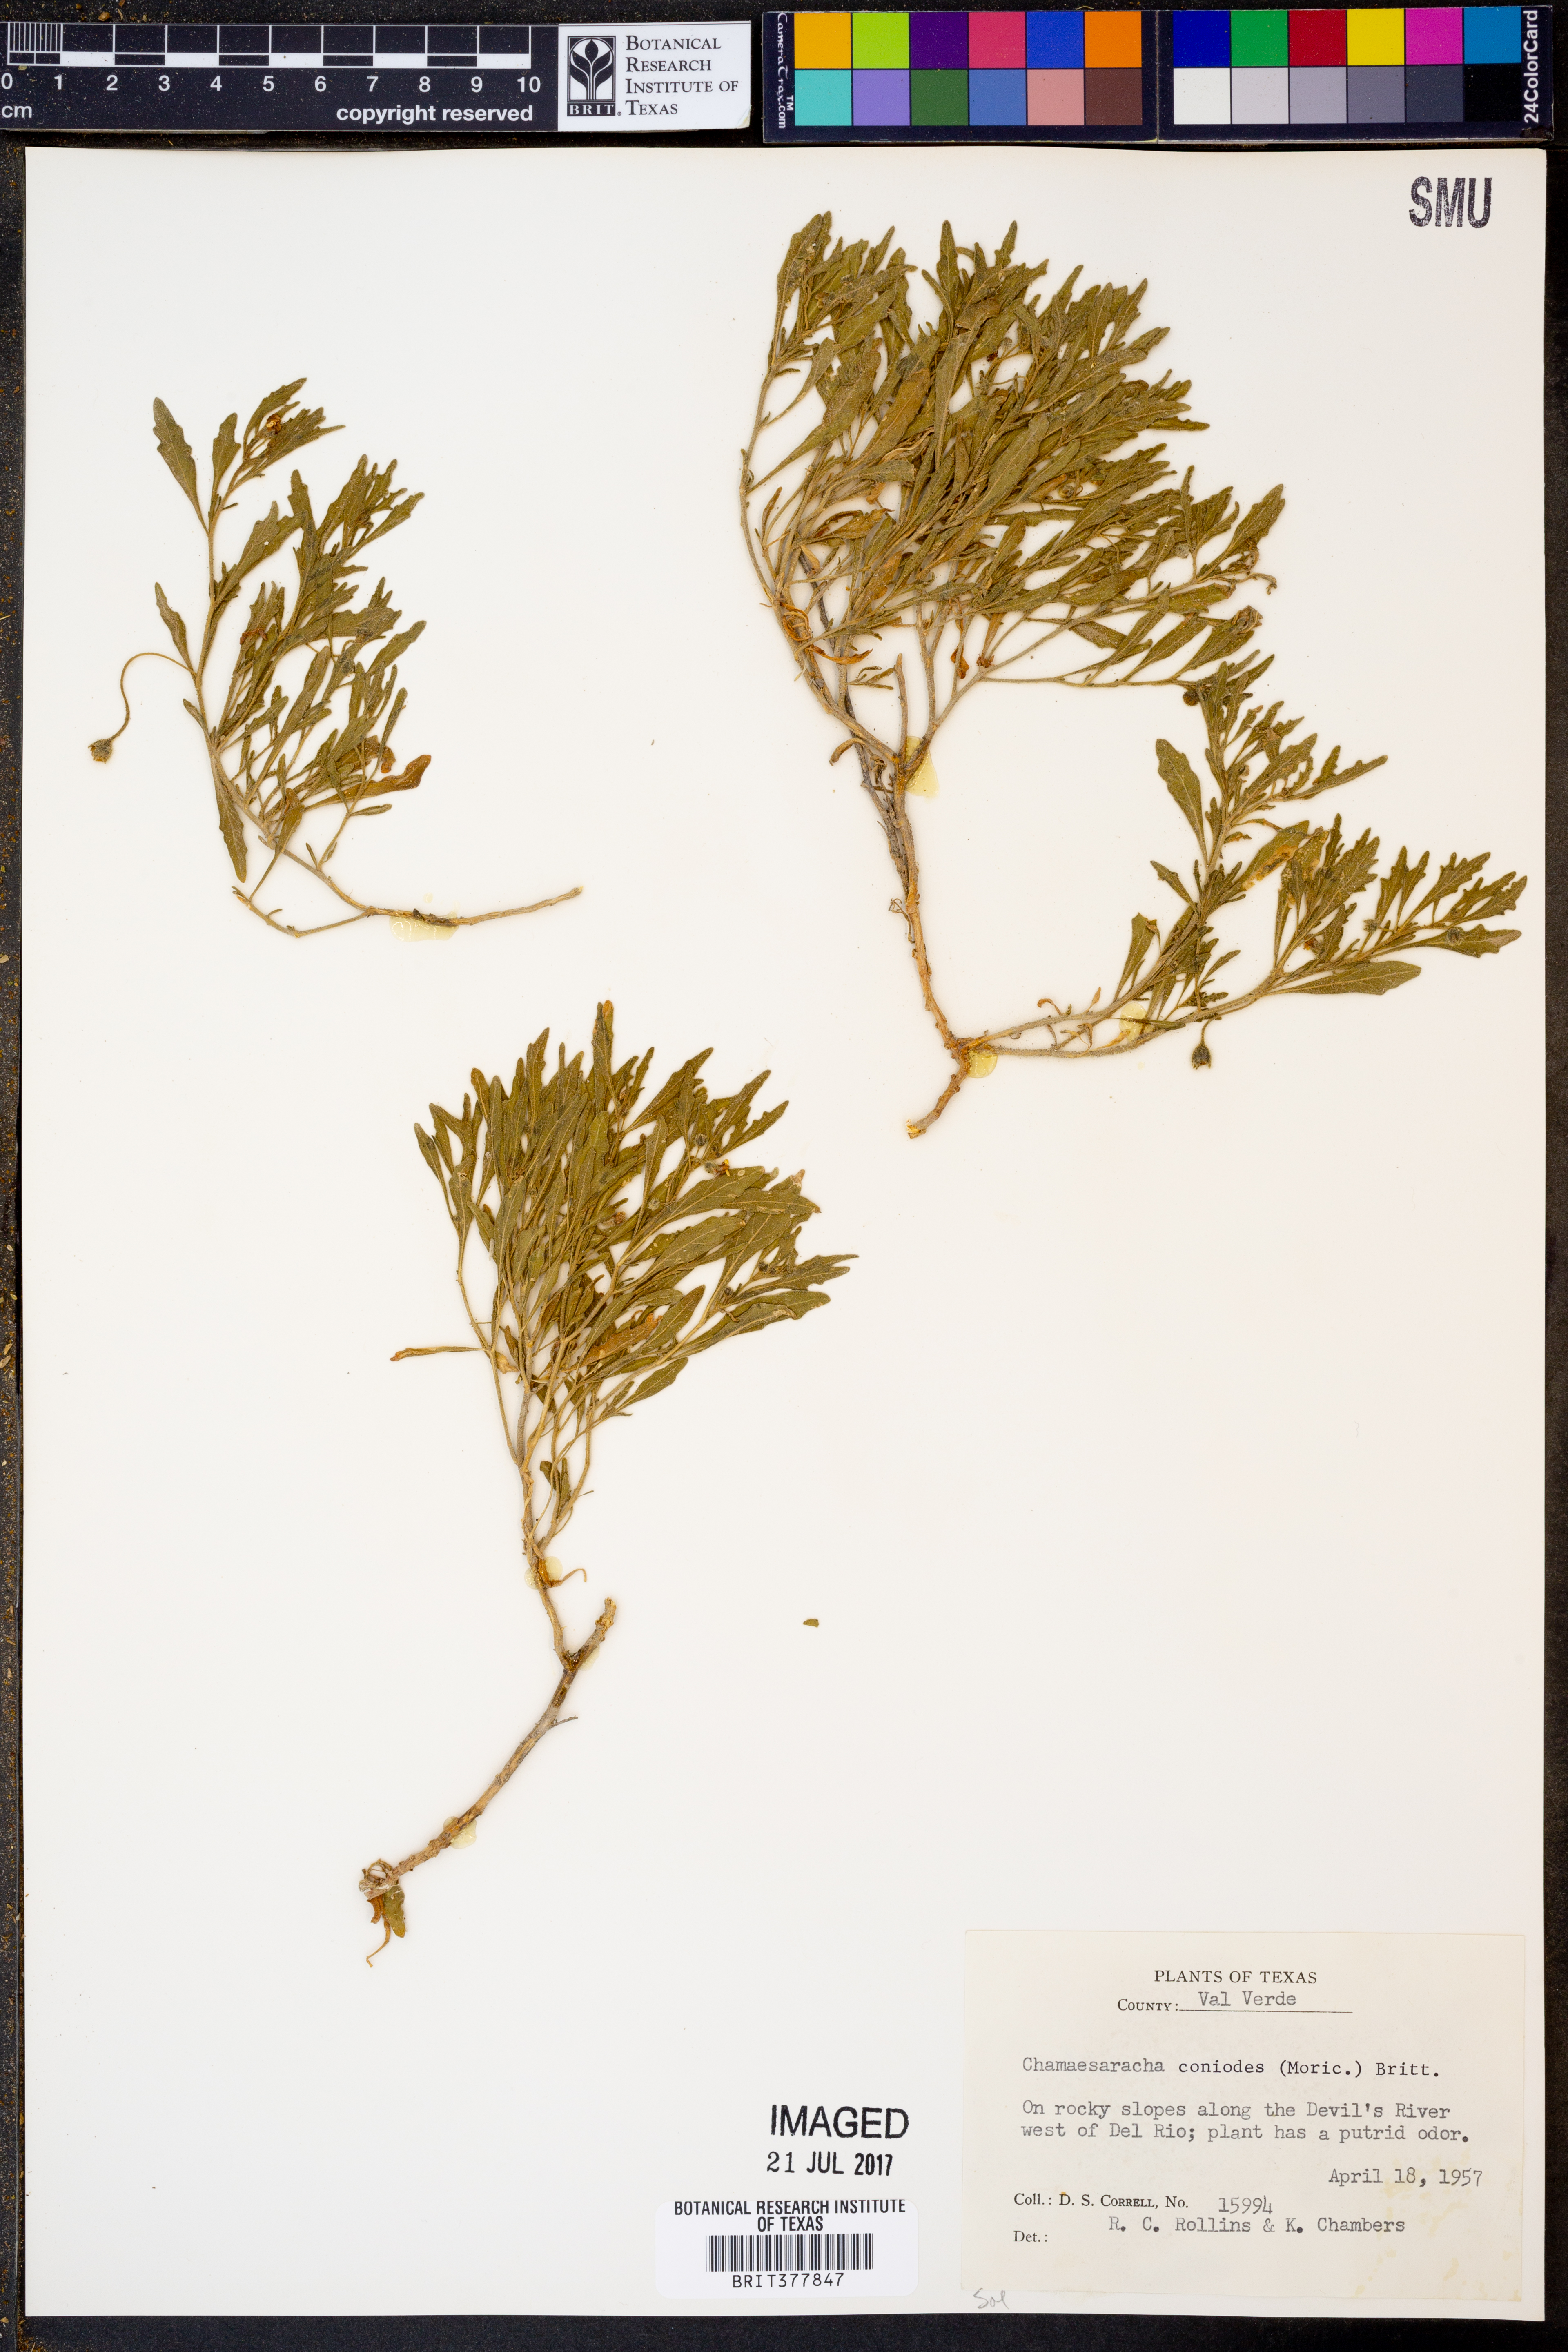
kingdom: Plantae
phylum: Tracheophyta
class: Magnoliopsida
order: Solanales
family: Solanaceae
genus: Chamaesaracha
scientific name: Chamaesaracha coniodes
